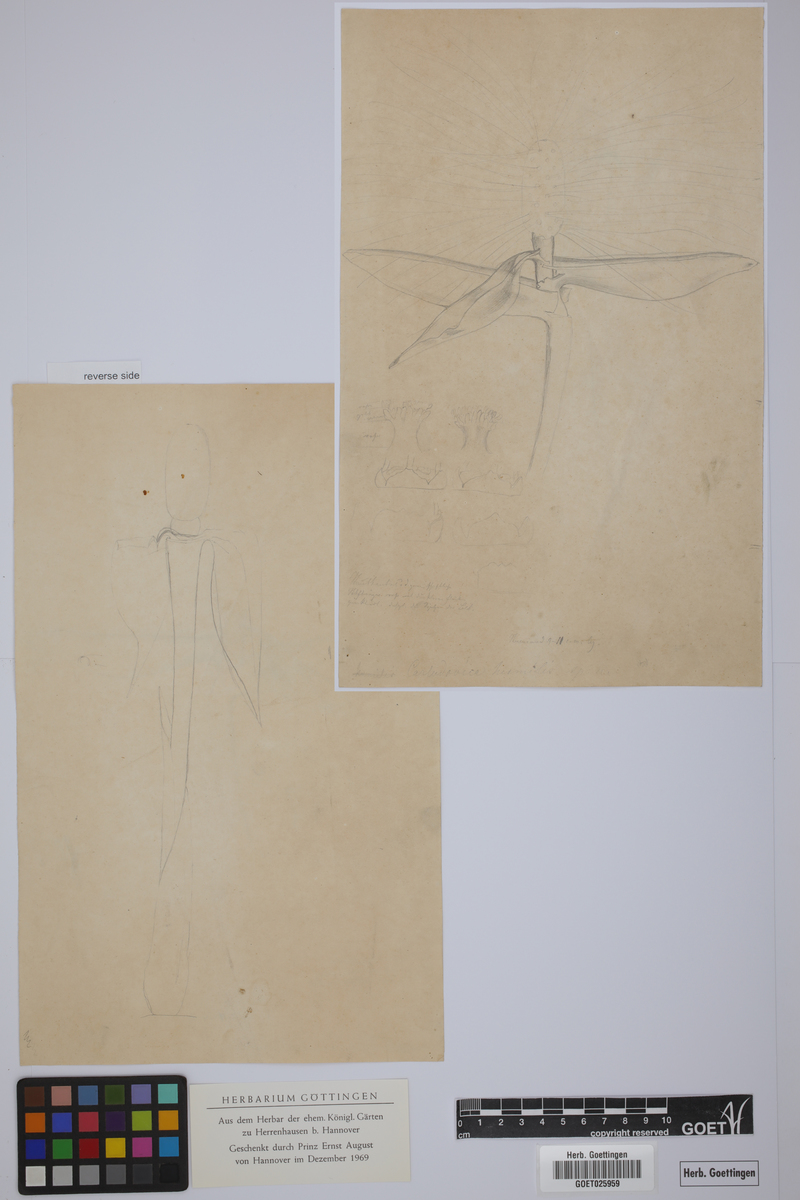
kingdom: Plantae
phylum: Tracheophyta
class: Liliopsida
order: Pandanales
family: Cyclanthaceae
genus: Asplundia
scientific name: Asplundia humilis
